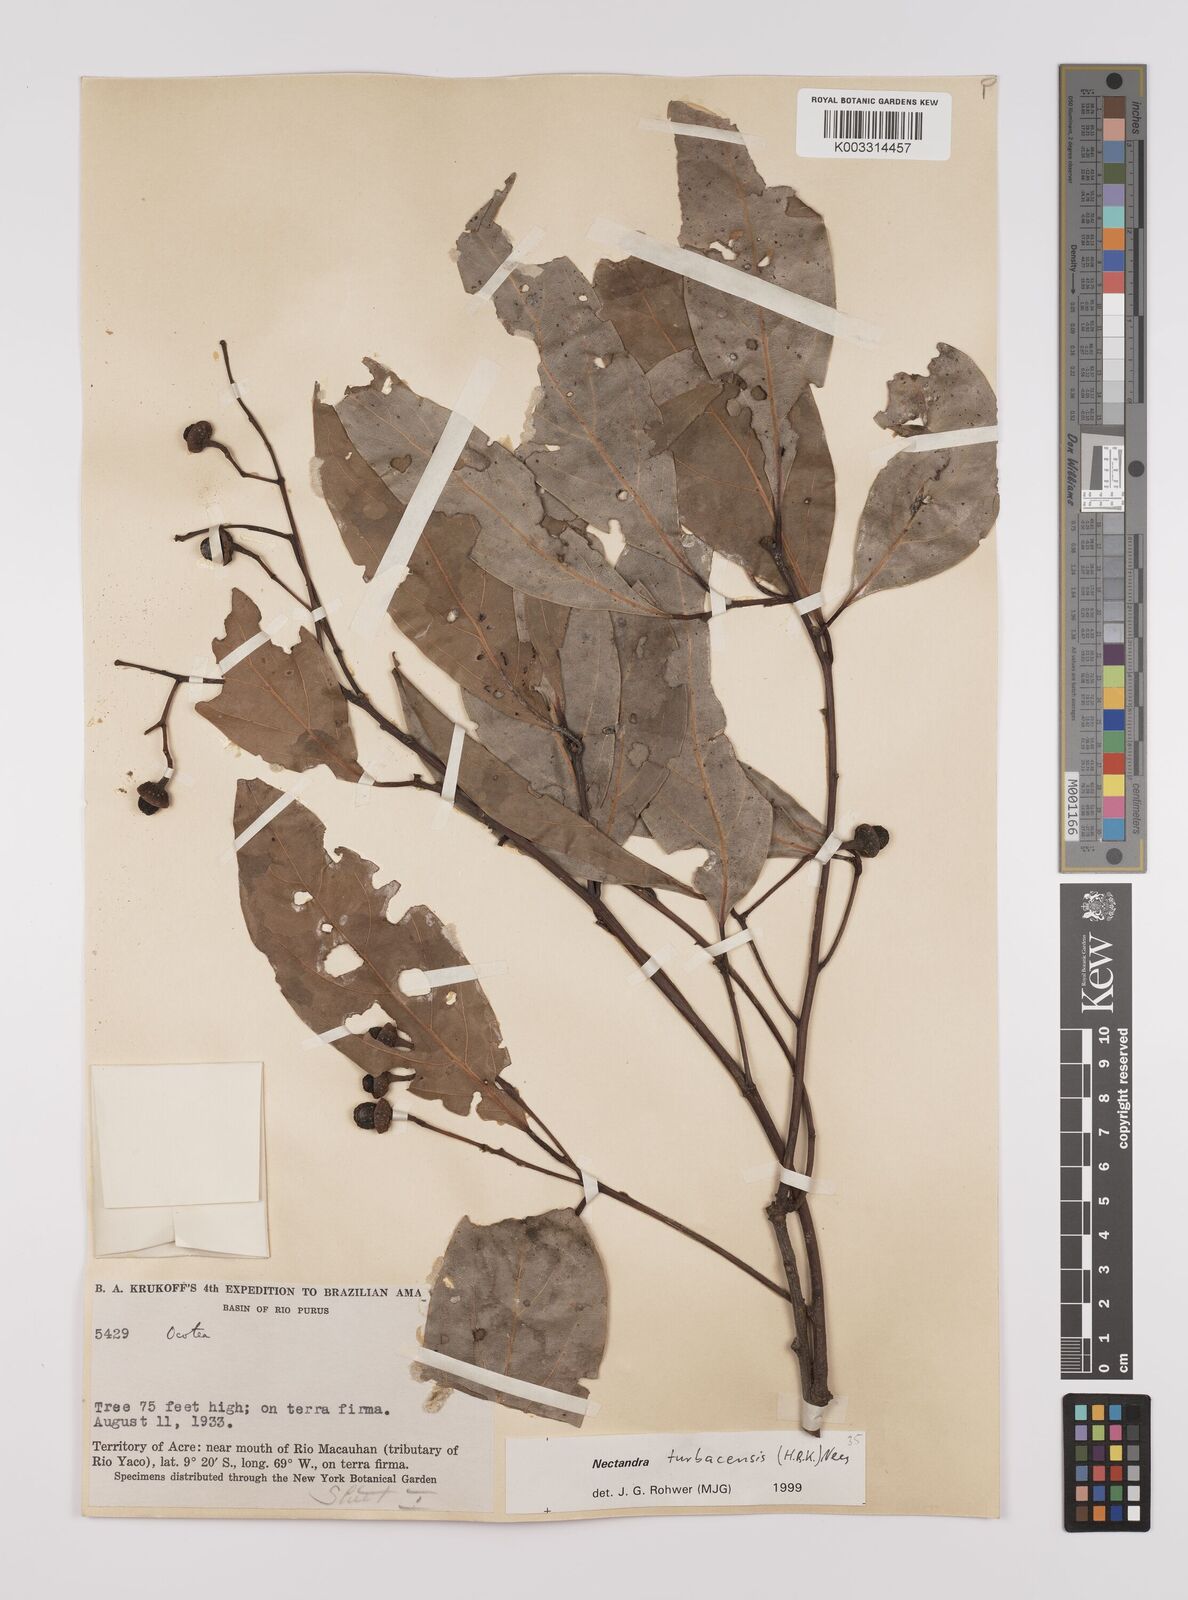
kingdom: Plantae
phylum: Tracheophyta
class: Magnoliopsida
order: Laurales
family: Lauraceae
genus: Nectandra
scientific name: Nectandra turbacensis
